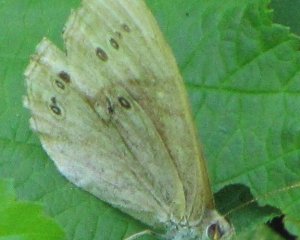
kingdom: Animalia
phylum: Arthropoda
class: Insecta
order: Lepidoptera
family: Nymphalidae
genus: Lethe
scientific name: Lethe eurydice
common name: Eyed Brown
